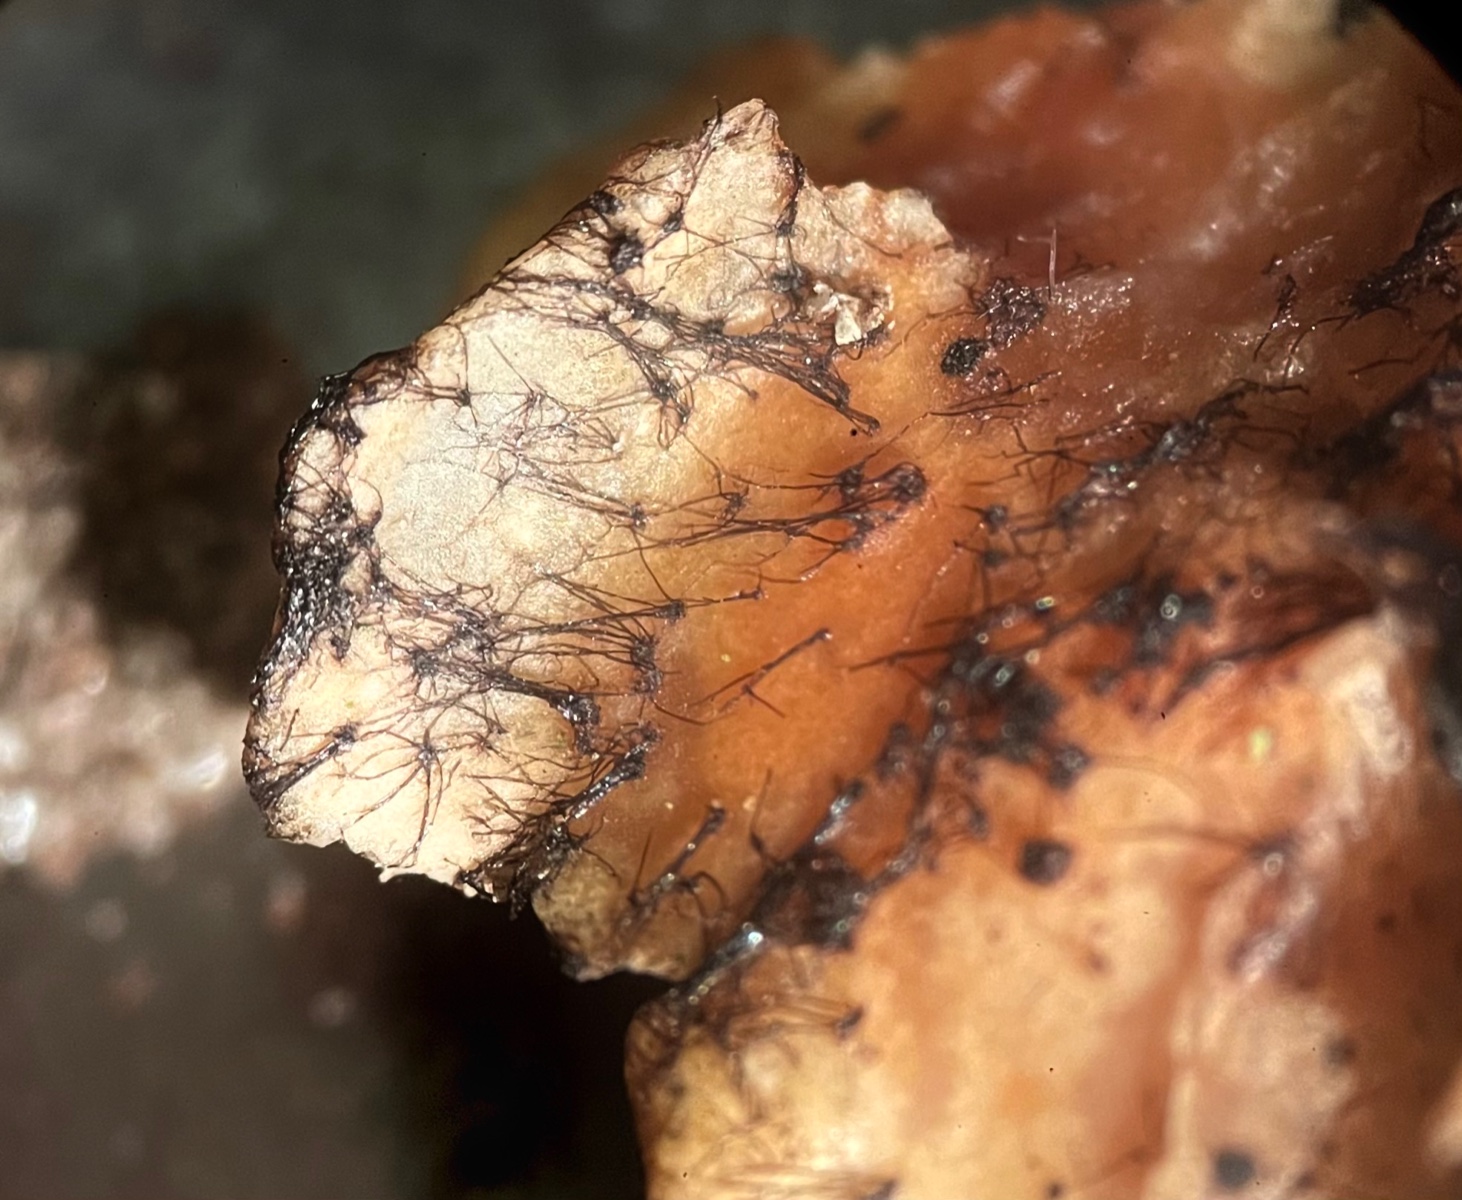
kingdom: Fungi
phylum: Basidiomycota
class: Agaricomycetes
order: Agaricales
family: Typhulaceae
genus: Sclerotium
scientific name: Sclerotium
